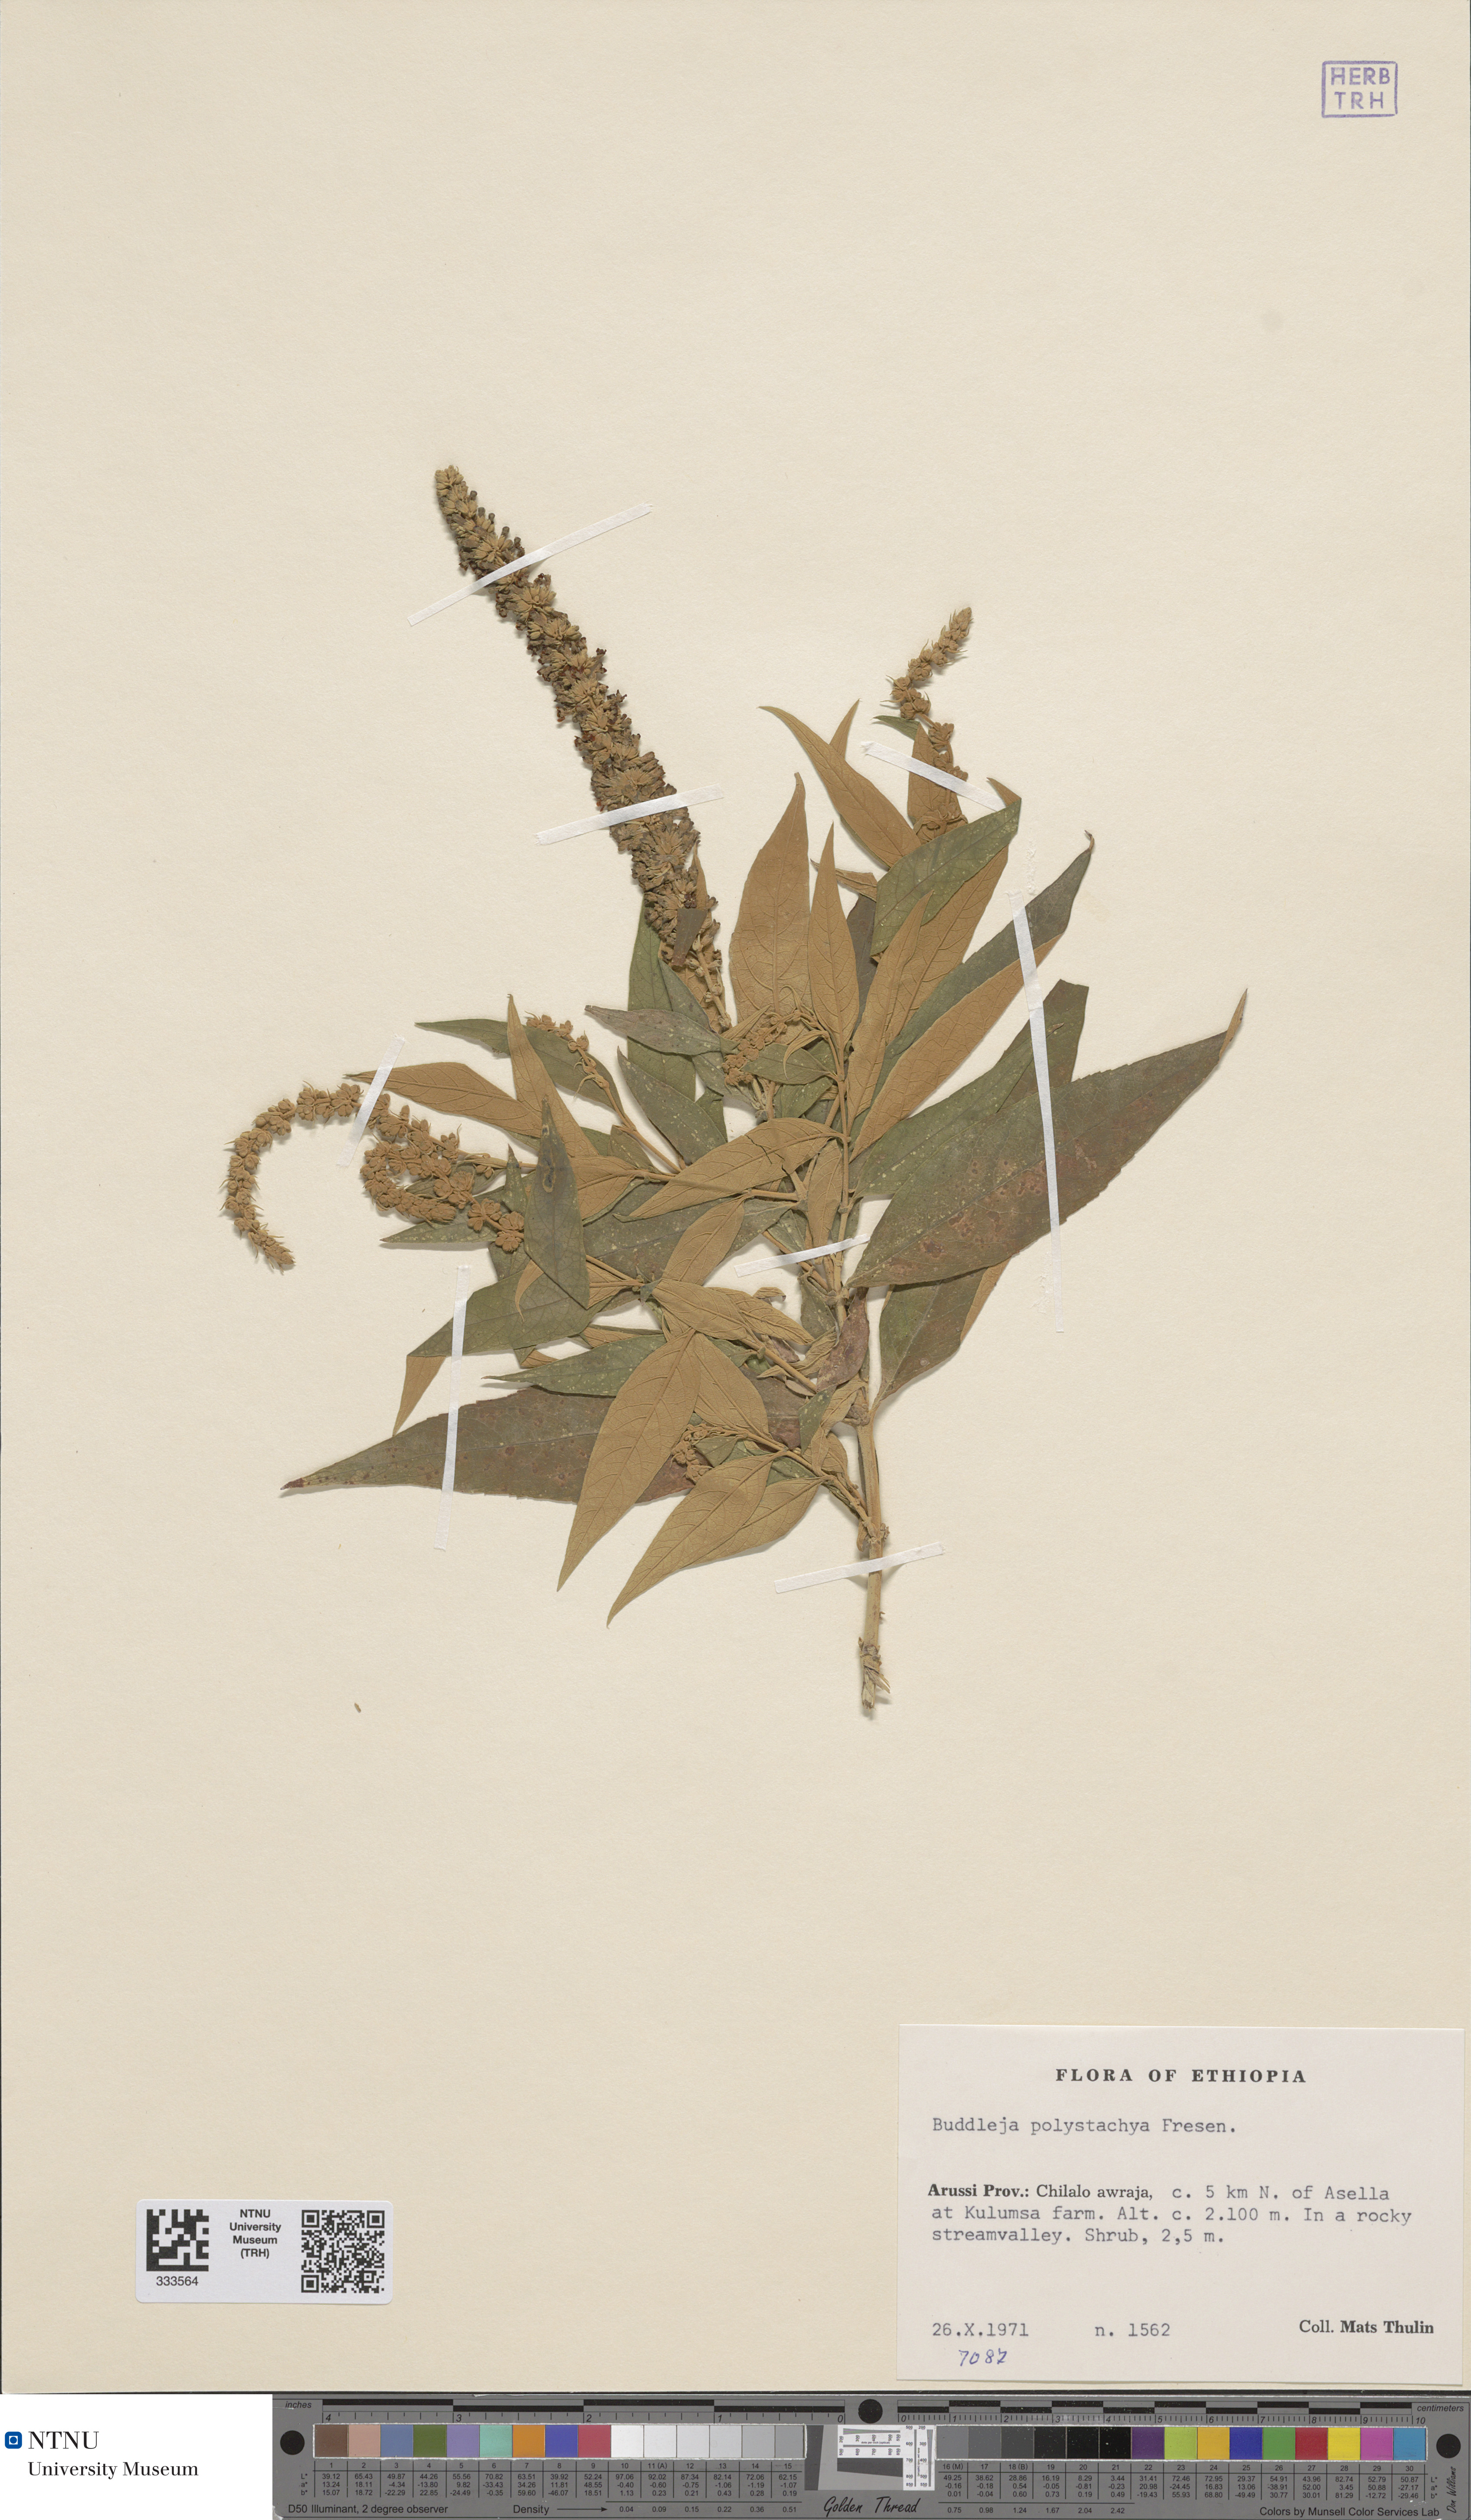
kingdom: Plantae
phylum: Tracheophyta
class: Magnoliopsida
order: Lamiales
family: Scrophulariaceae
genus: Buddleja
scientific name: Buddleja polystachya
